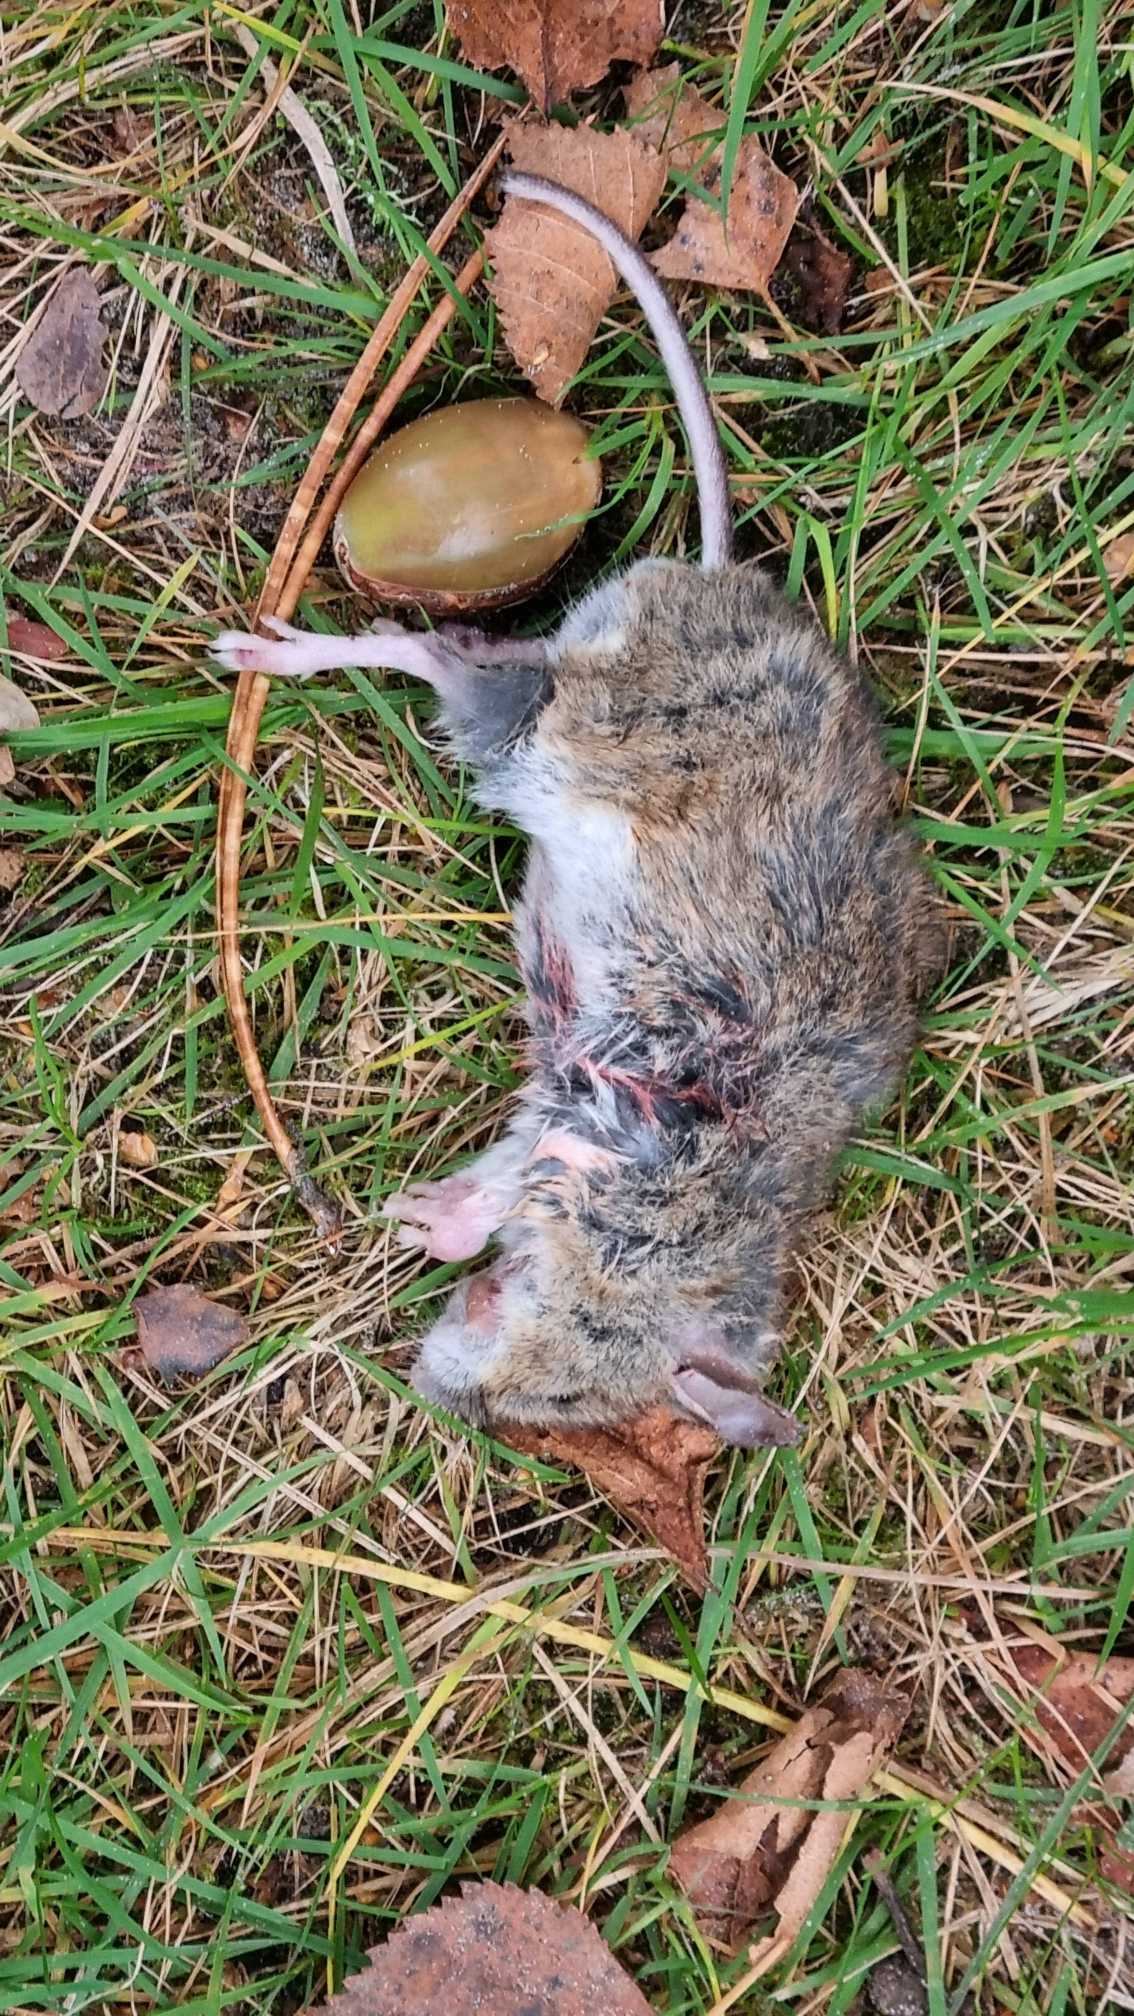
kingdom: Animalia
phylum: Chordata
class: Mammalia
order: Rodentia
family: Muridae
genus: Apodemus
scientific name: Apodemus sylvaticus
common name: Skovmus
